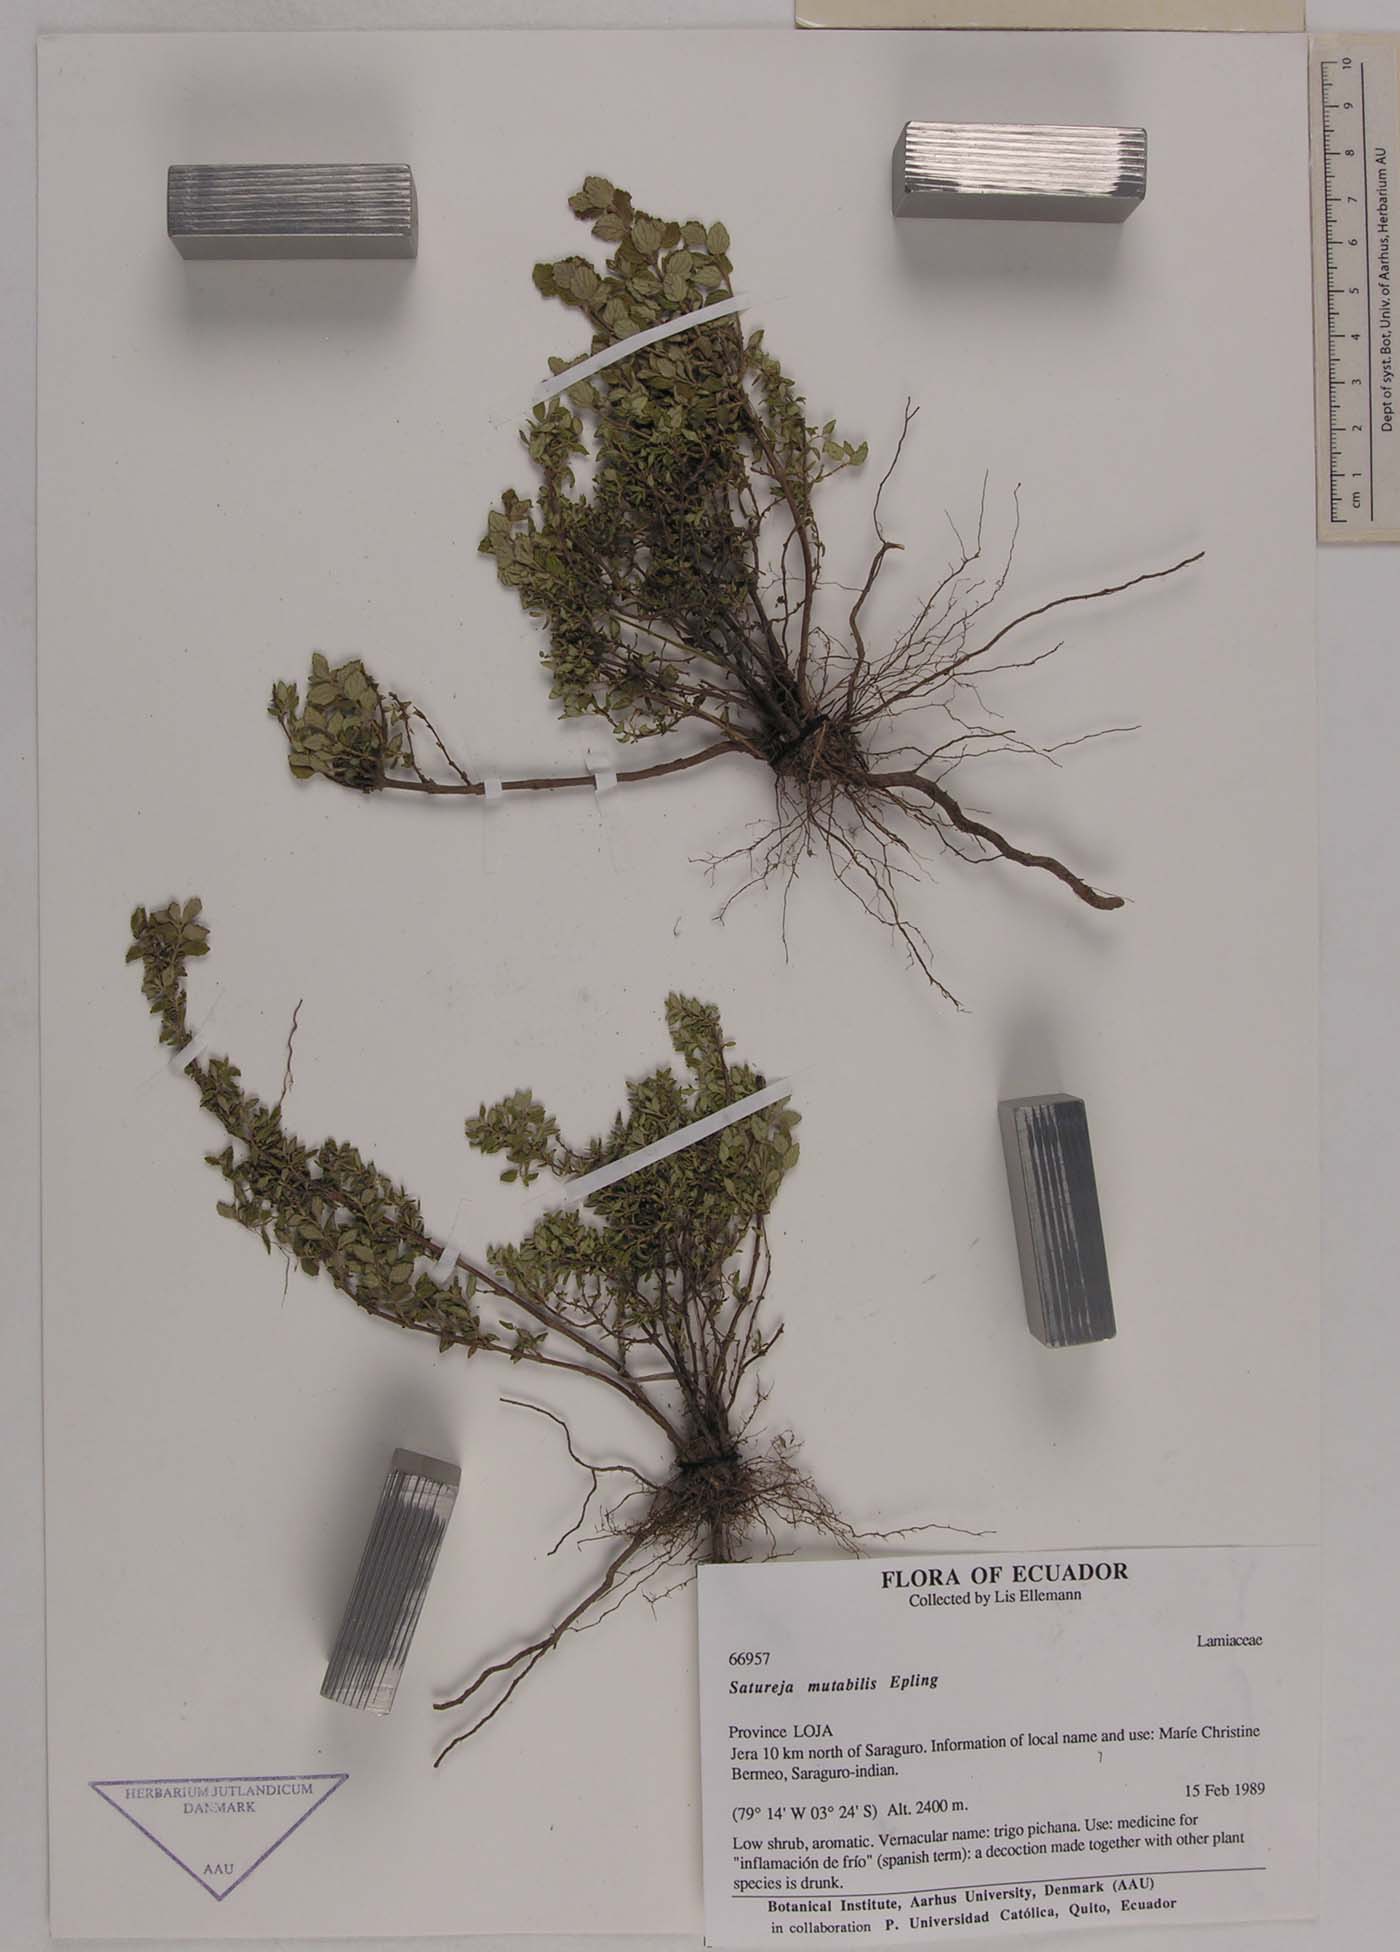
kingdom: Plantae
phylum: Tracheophyta
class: Magnoliopsida
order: Lamiales
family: Lamiaceae
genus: Clinopodium
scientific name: Clinopodium mutabile
